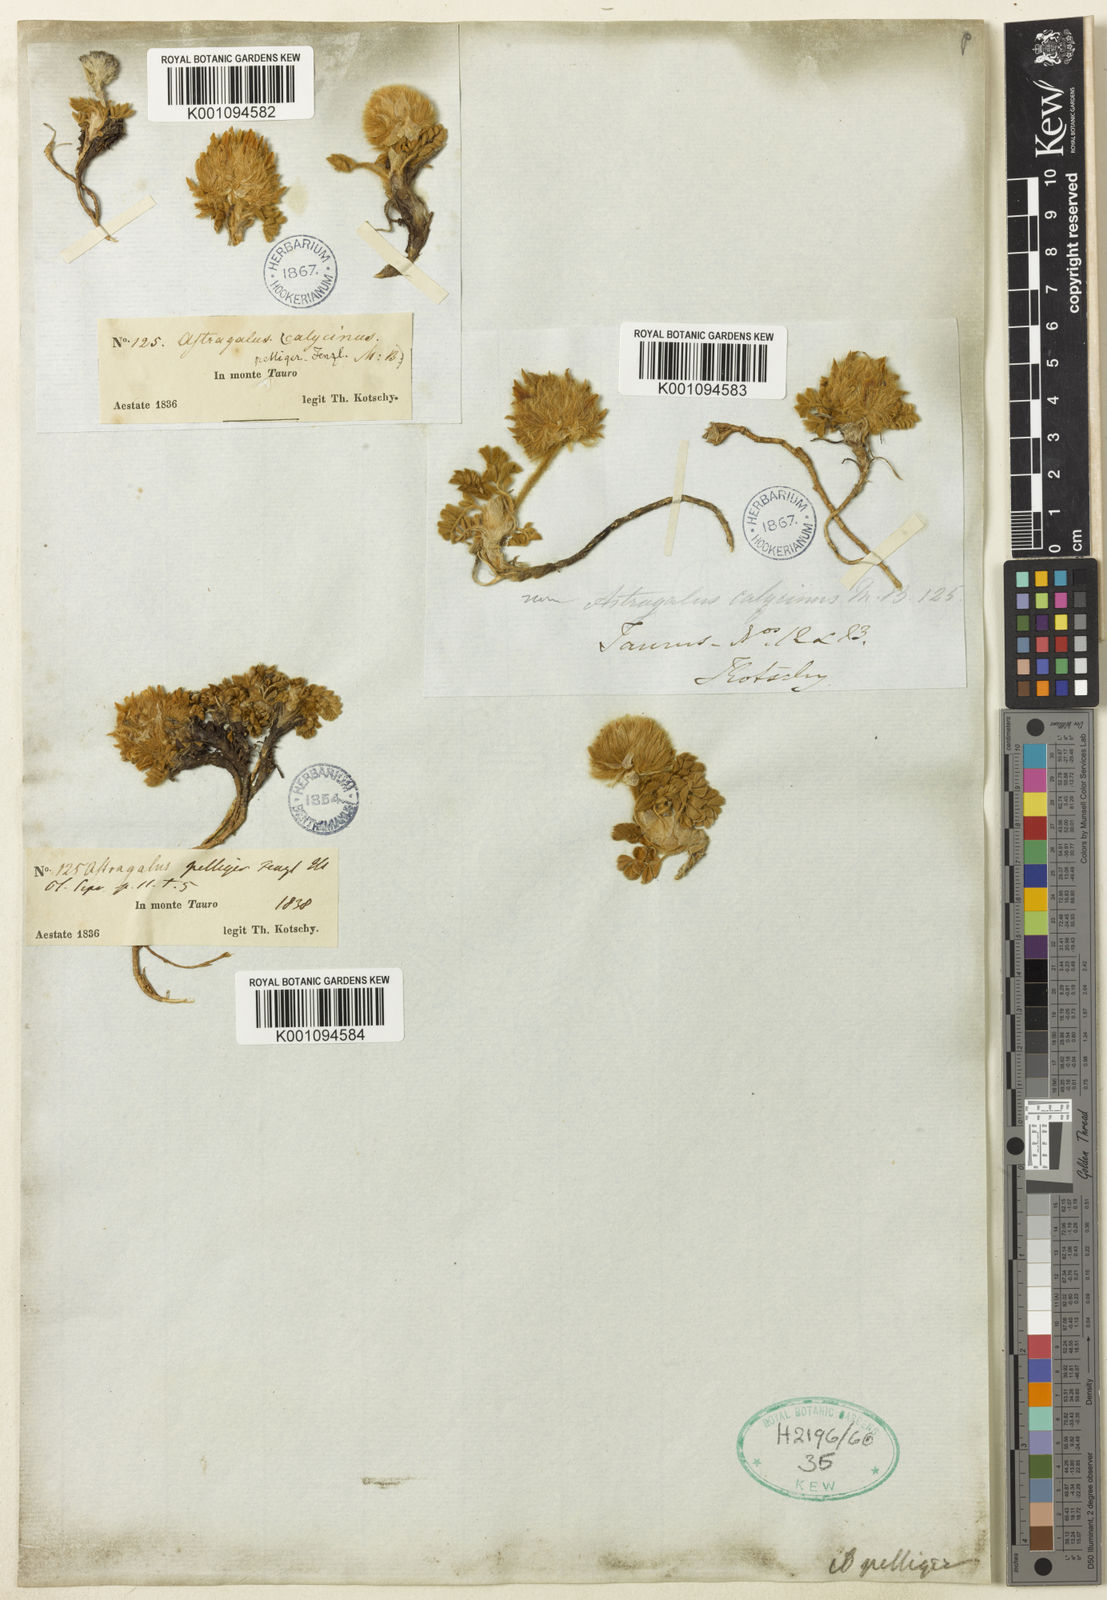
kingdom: Plantae
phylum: Tracheophyta
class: Magnoliopsida
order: Fabales
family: Fabaceae
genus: Astragalus
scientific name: Astragalus
